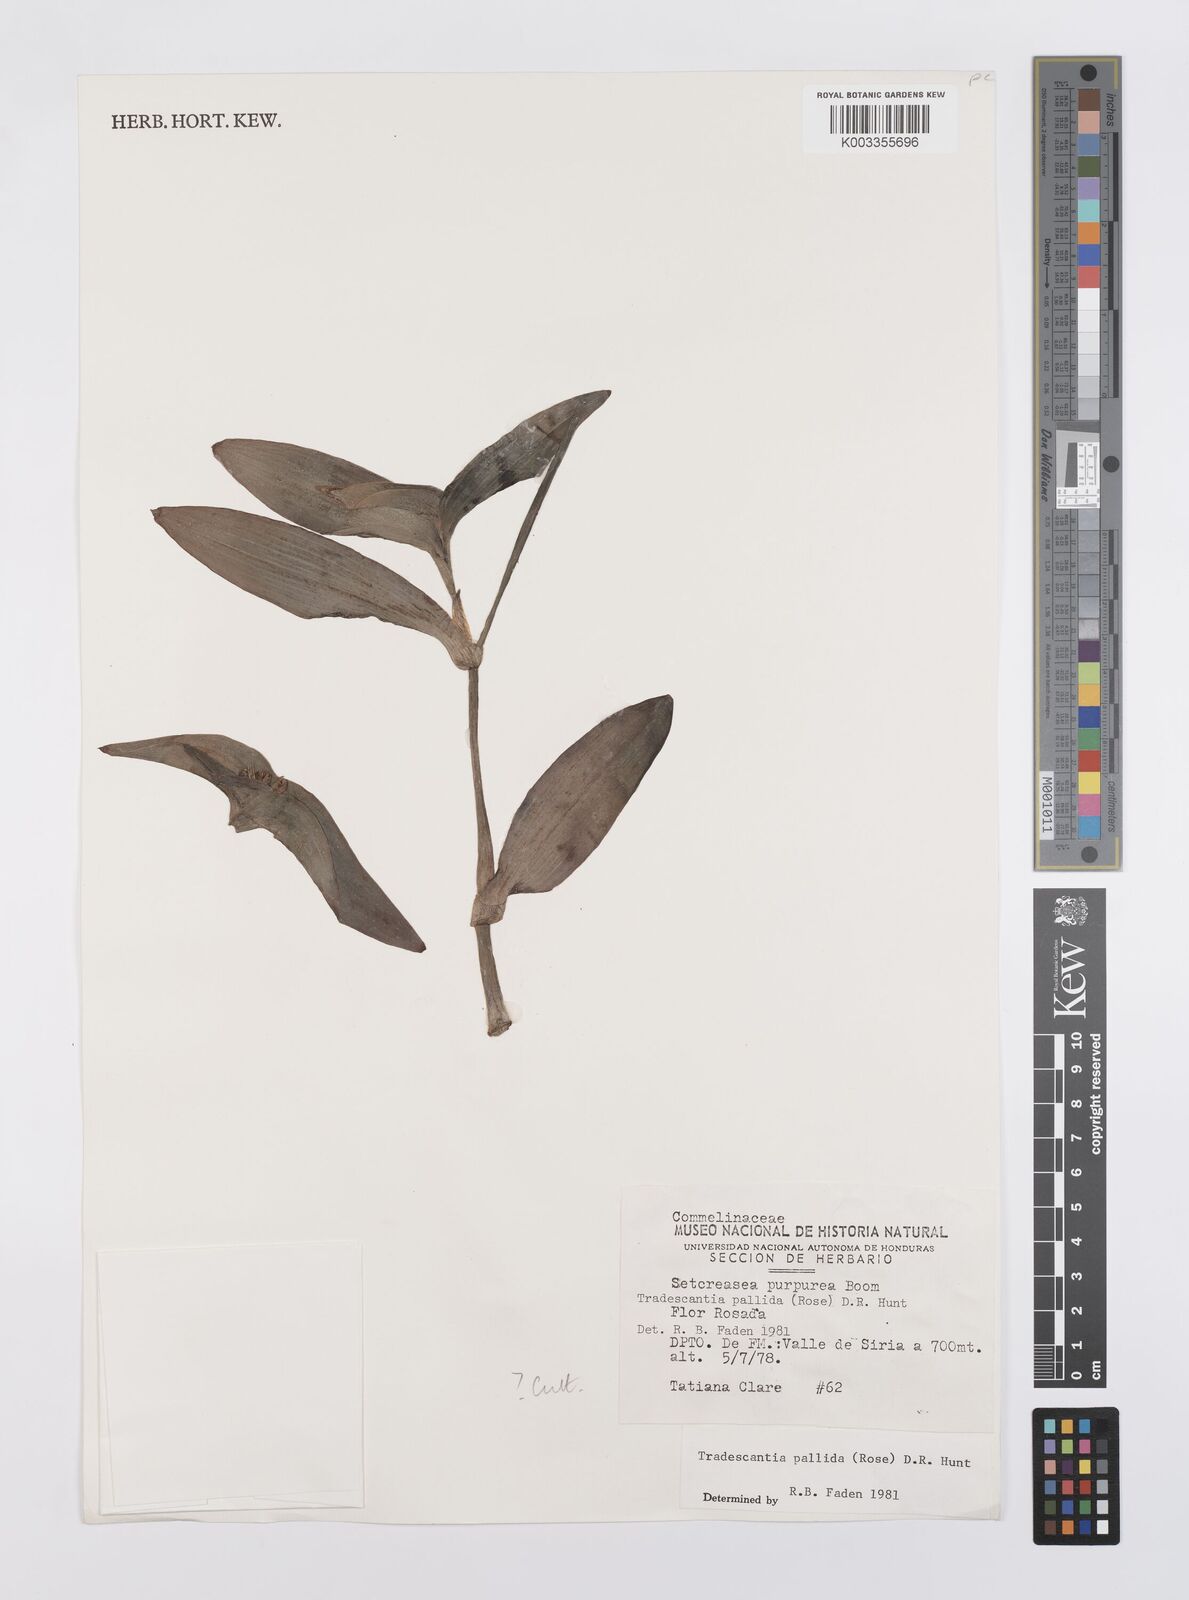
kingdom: Plantae
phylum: Tracheophyta
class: Liliopsida
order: Commelinales
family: Commelinaceae
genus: Tradescantia
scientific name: Tradescantia pallida
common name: Purpleheart
